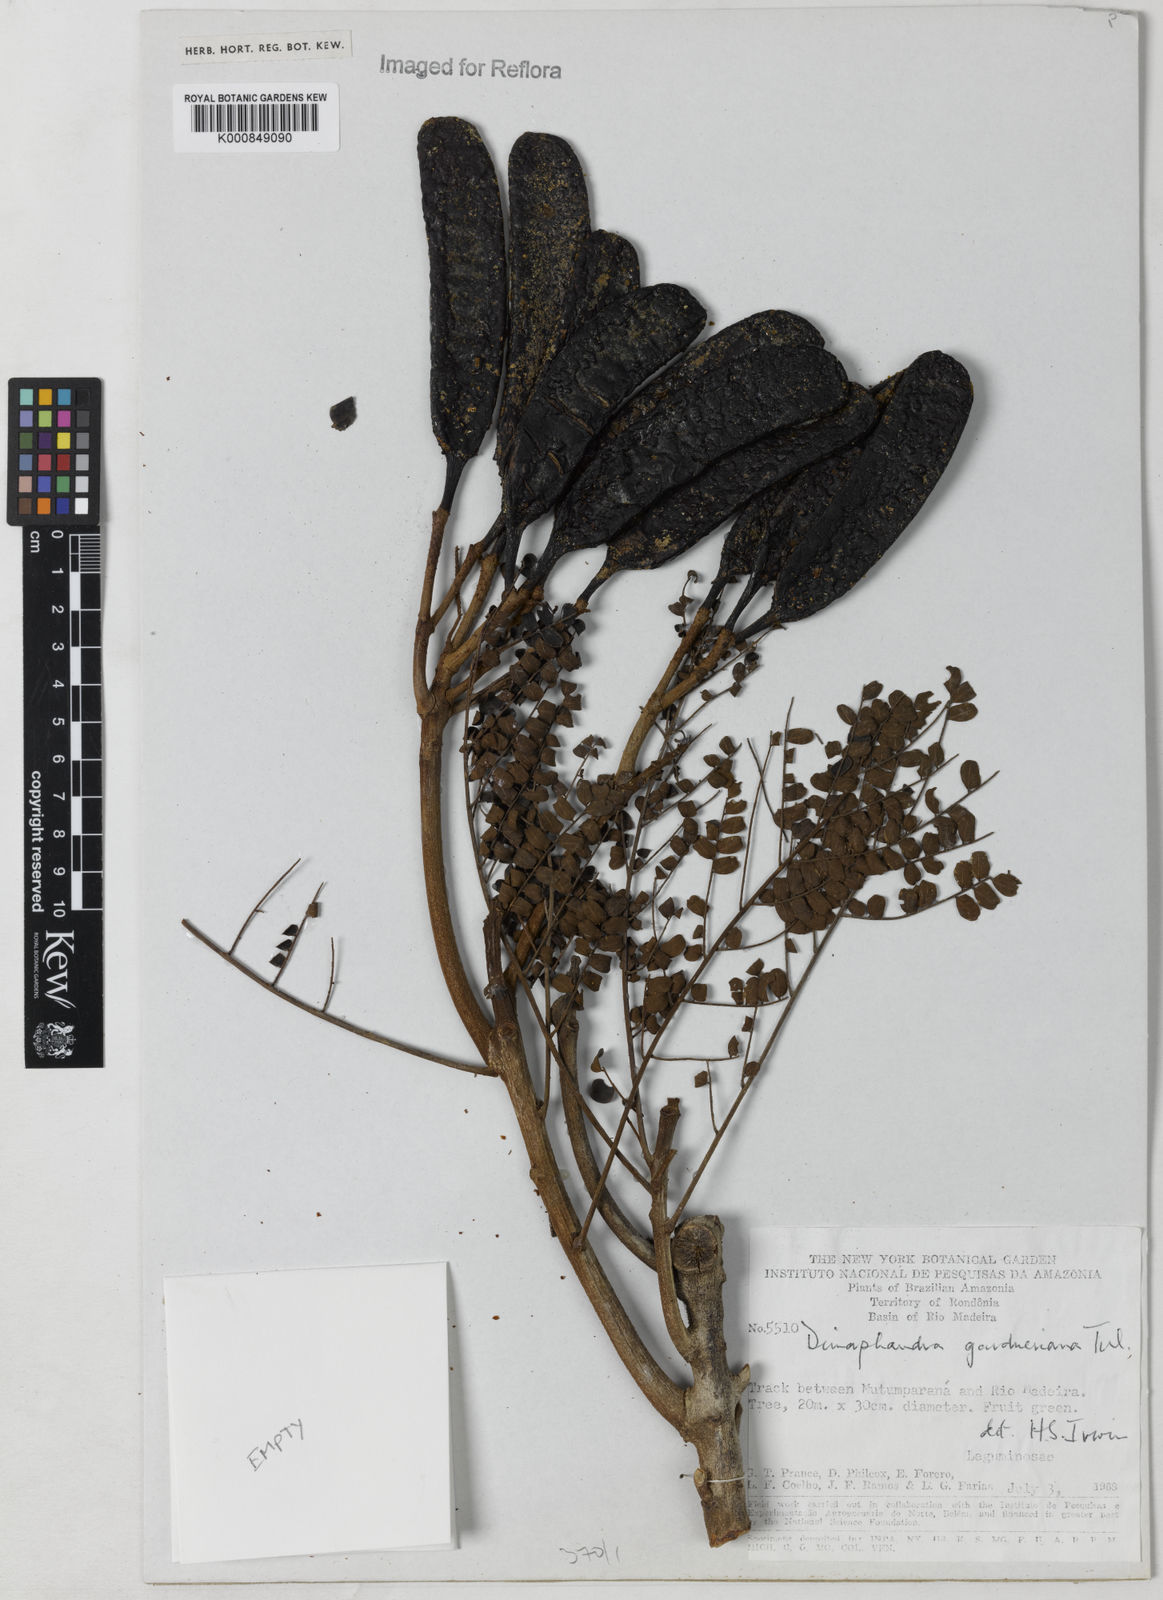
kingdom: Plantae
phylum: Tracheophyta
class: Magnoliopsida
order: Fabales
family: Fabaceae
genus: Dimorphandra
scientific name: Dimorphandra gardneriana
